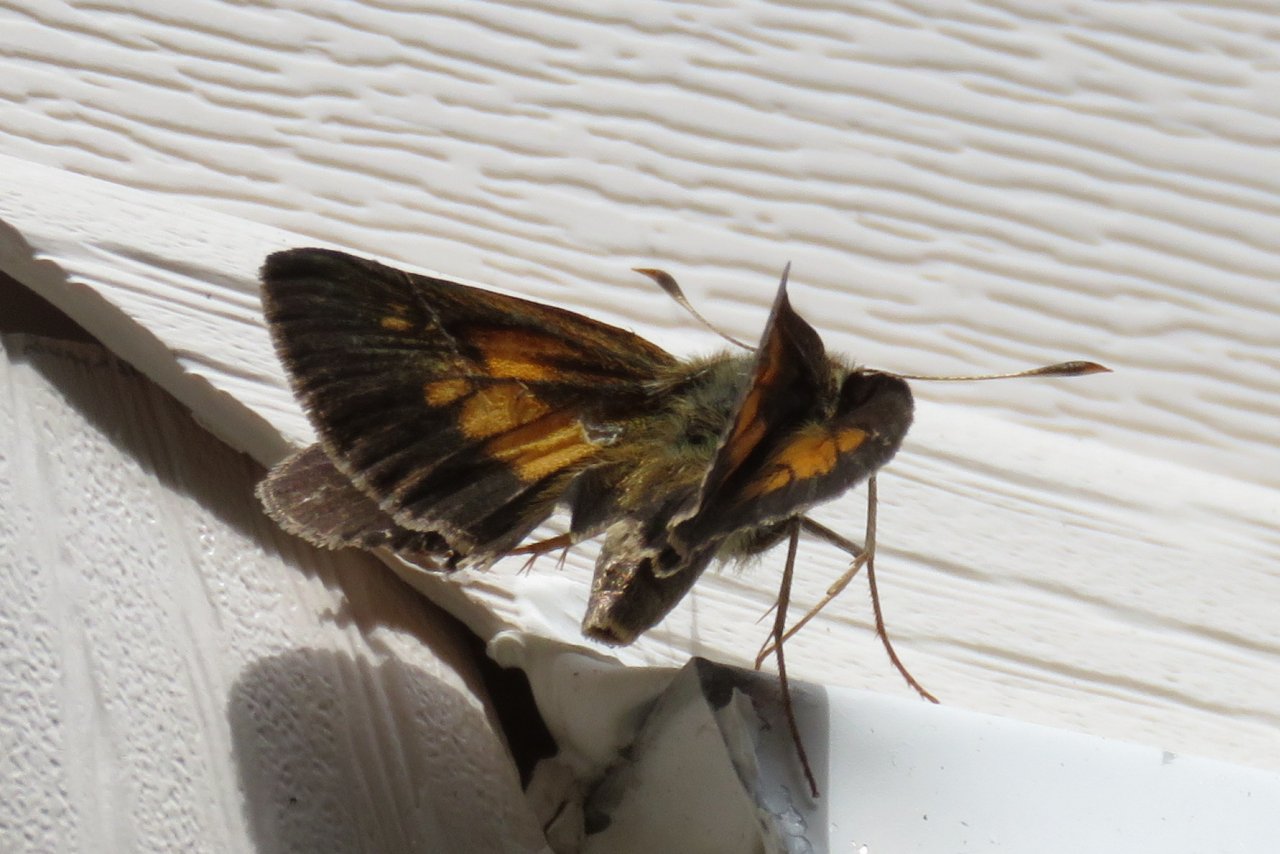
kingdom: Animalia
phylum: Arthropoda
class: Insecta
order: Lepidoptera
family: Hesperiidae
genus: Poanes
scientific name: Poanes viator
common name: Broad-winged Skipper
